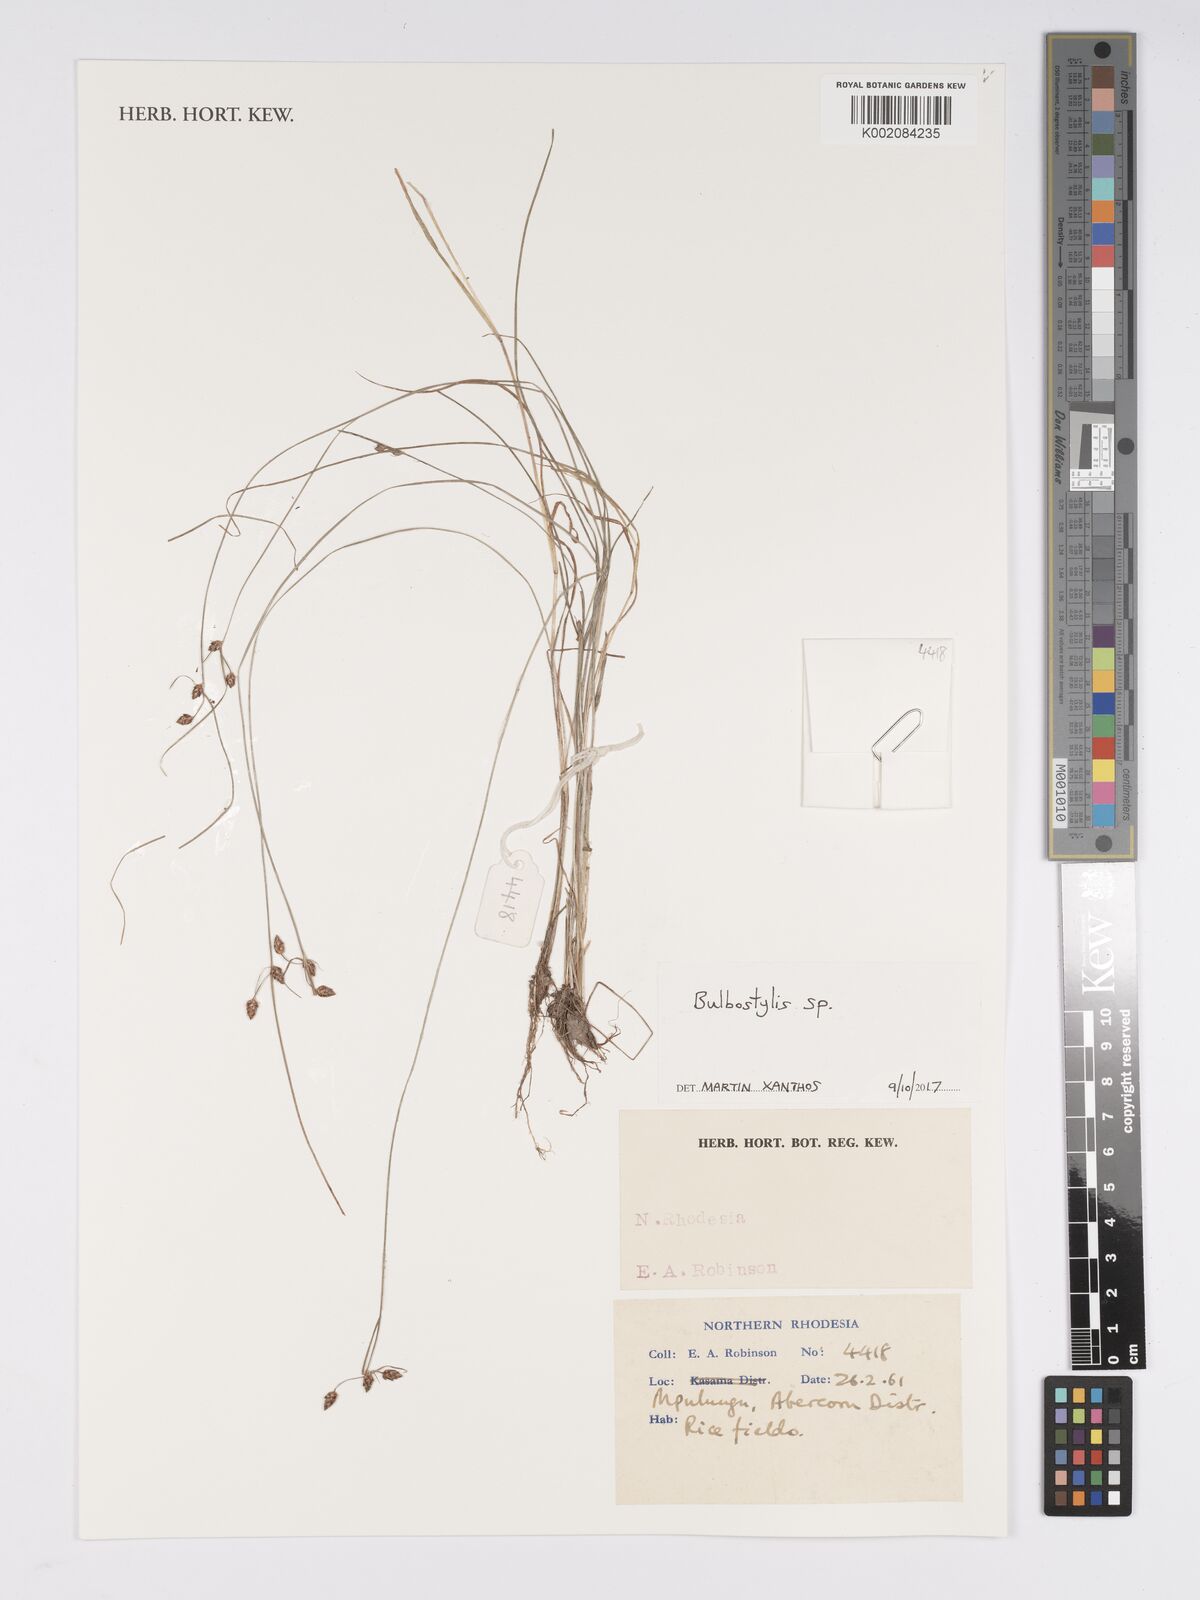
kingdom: Plantae
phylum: Tracheophyta
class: Liliopsida
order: Poales
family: Cyperaceae
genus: Bulbostylis
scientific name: Bulbostylis
